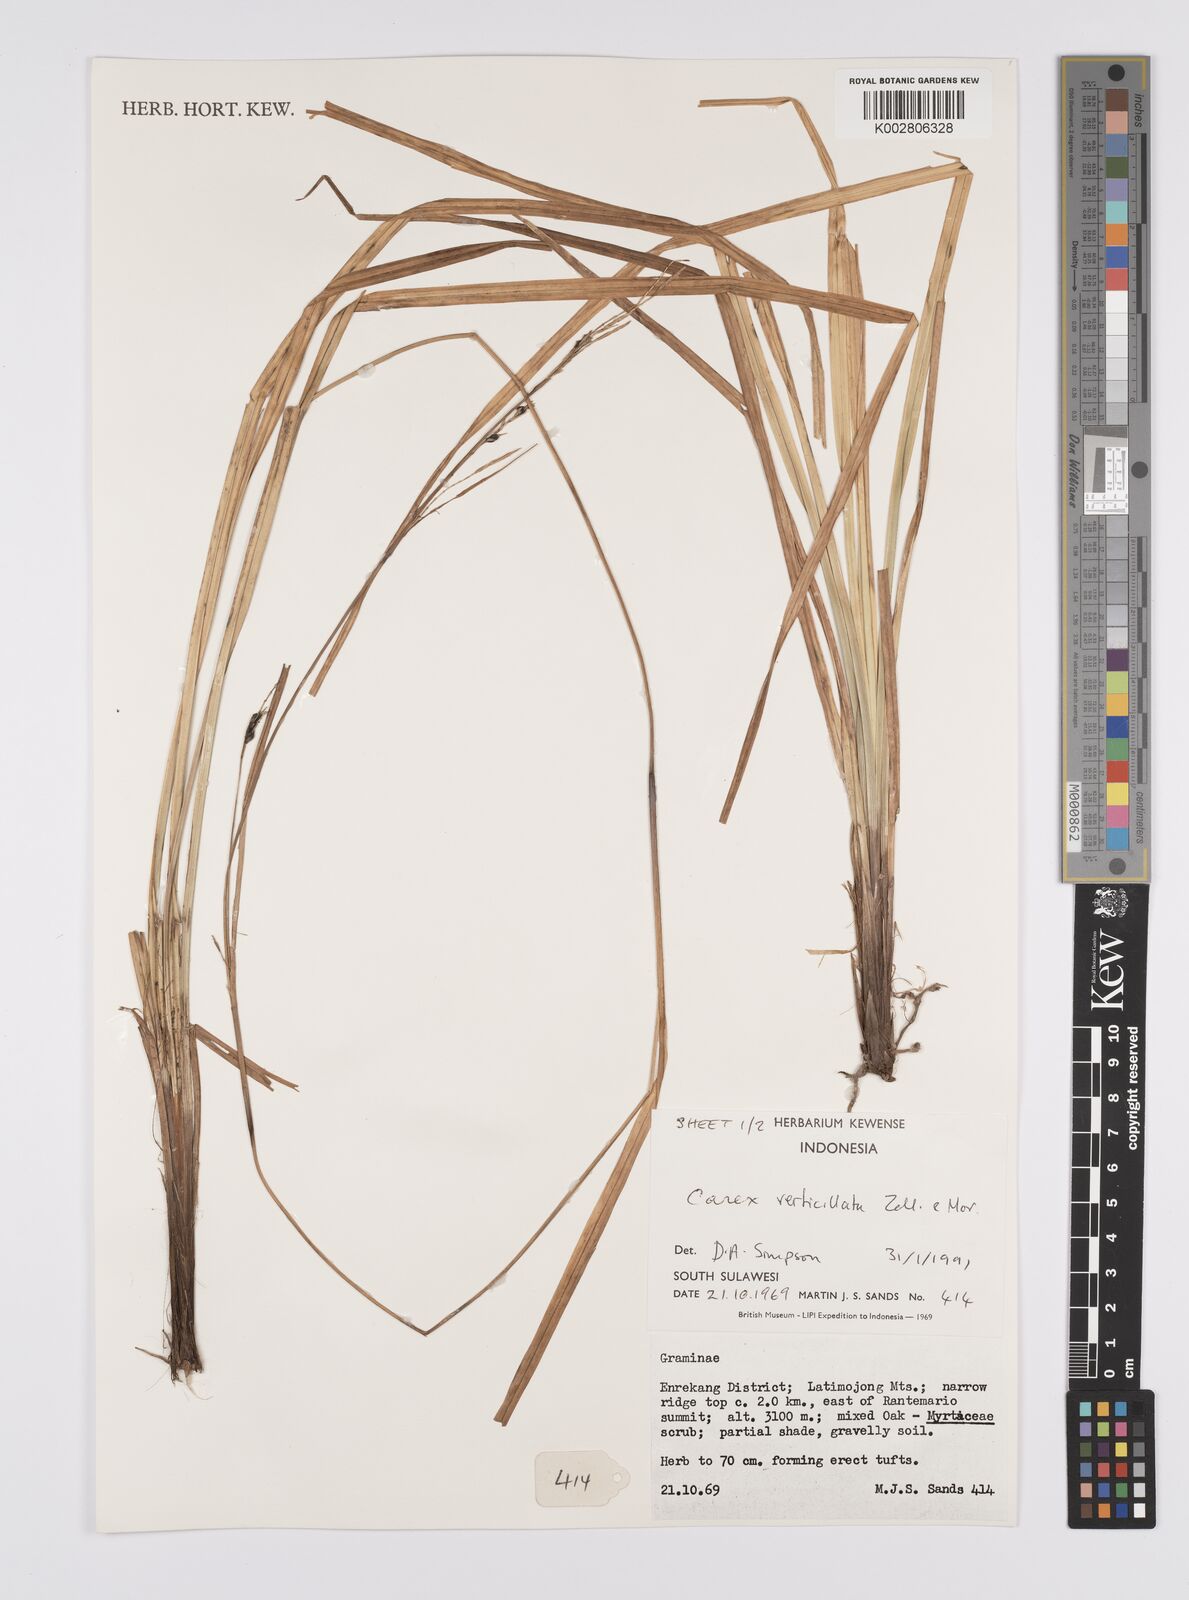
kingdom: Plantae
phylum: Tracheophyta
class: Liliopsida
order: Poales
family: Cyperaceae
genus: Carex
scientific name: Carex verticillata
